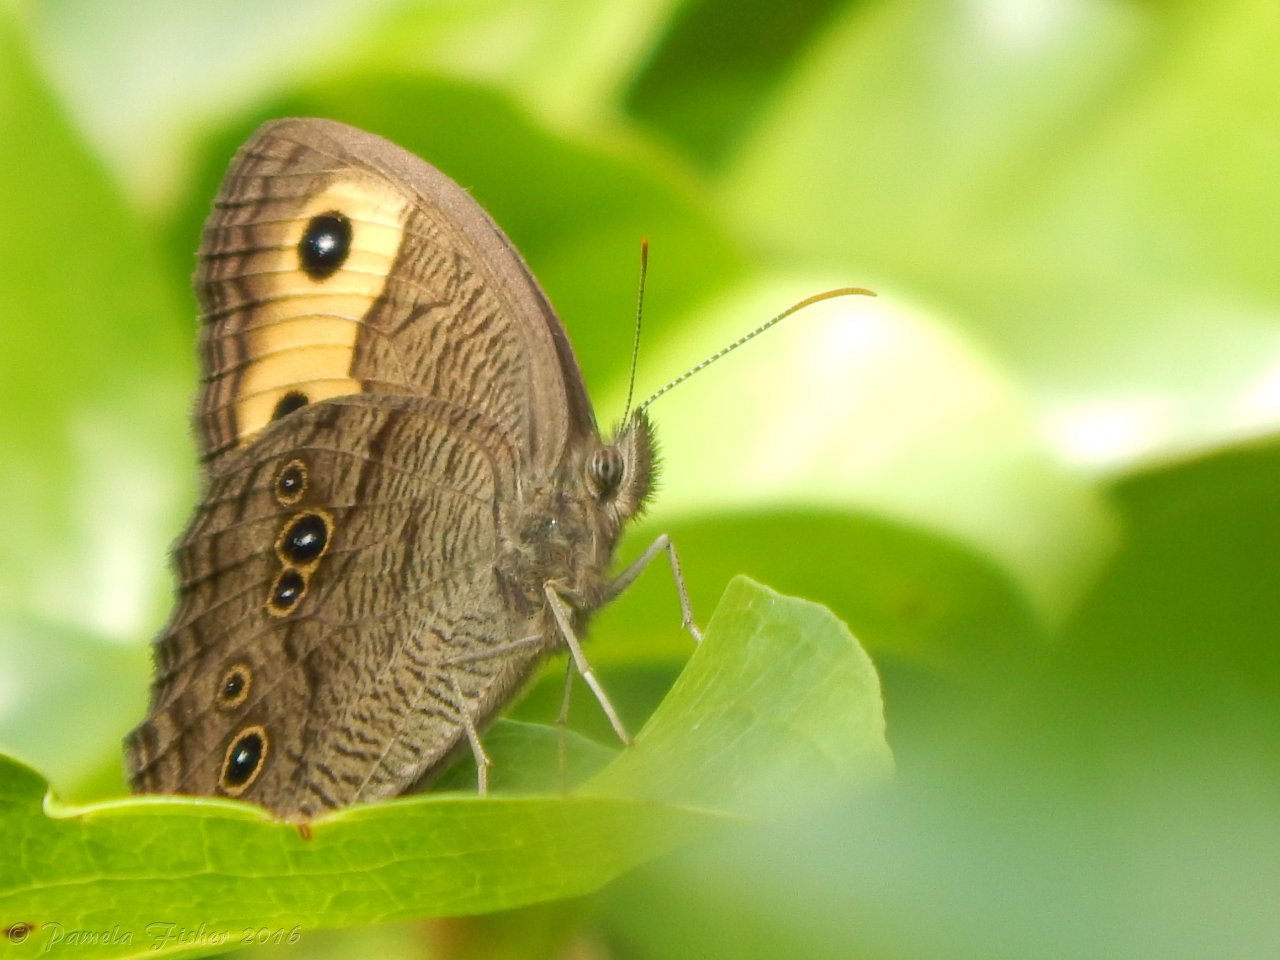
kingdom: Animalia
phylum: Arthropoda
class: Insecta
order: Lepidoptera
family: Nymphalidae
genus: Cercyonis
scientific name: Cercyonis pegala
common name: Common Wood-Nymph
